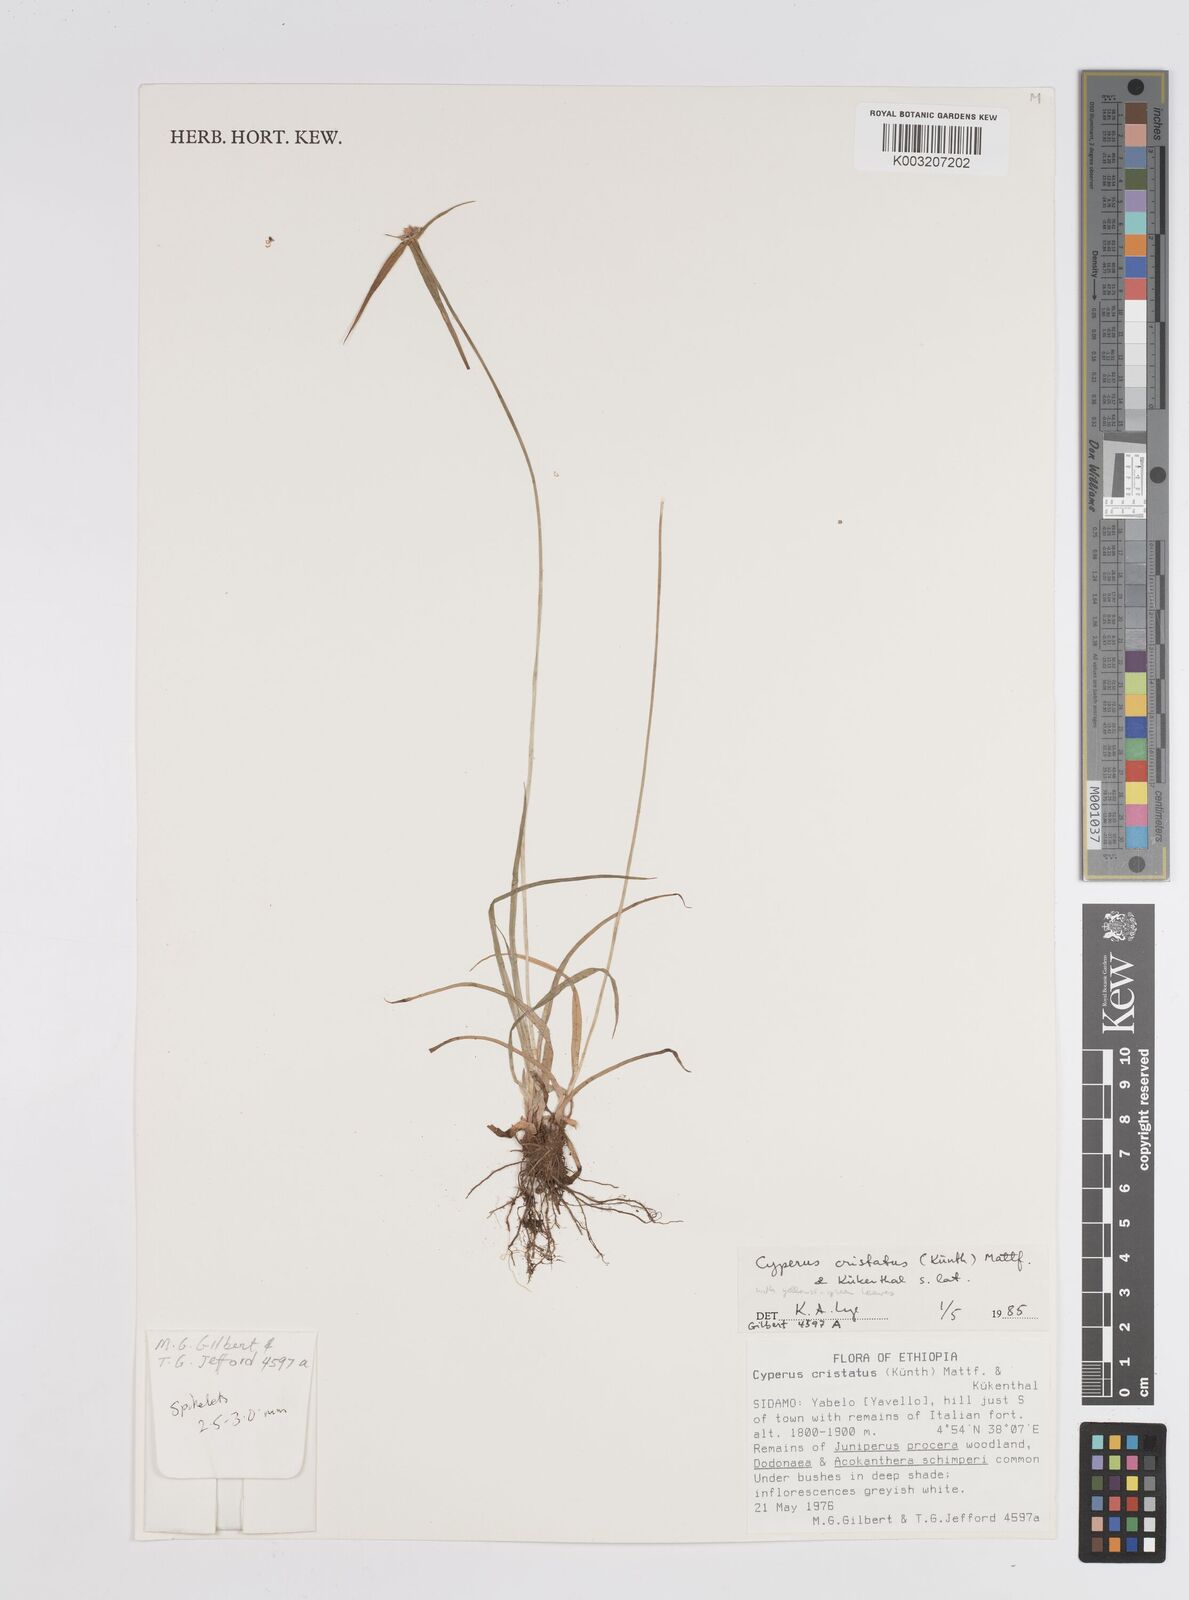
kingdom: Plantae
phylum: Tracheophyta
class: Liliopsida
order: Poales
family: Cyperaceae
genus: Cyperus
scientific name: Cyperus controversus
